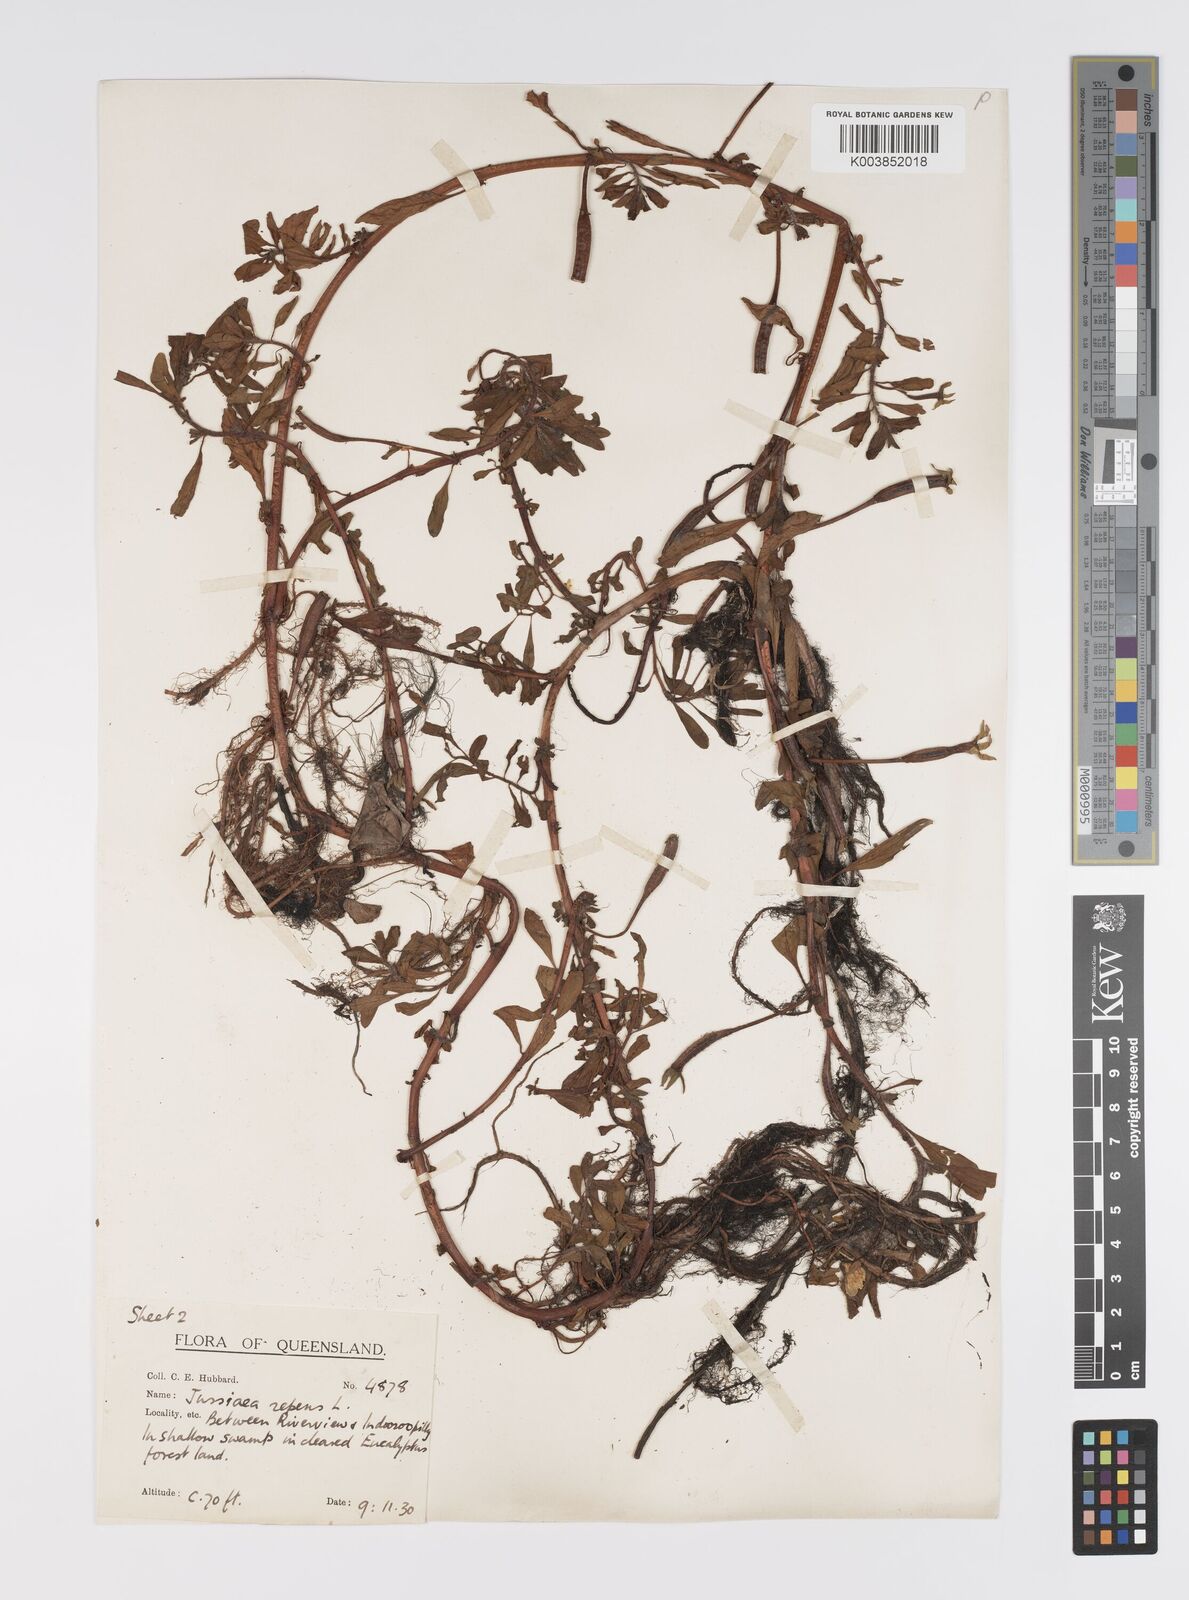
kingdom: Plantae
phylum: Tracheophyta
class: Magnoliopsida
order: Myrtales
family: Onagraceae
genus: Ludwigia
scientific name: Ludwigia peploides
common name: Floating primrose-willow
